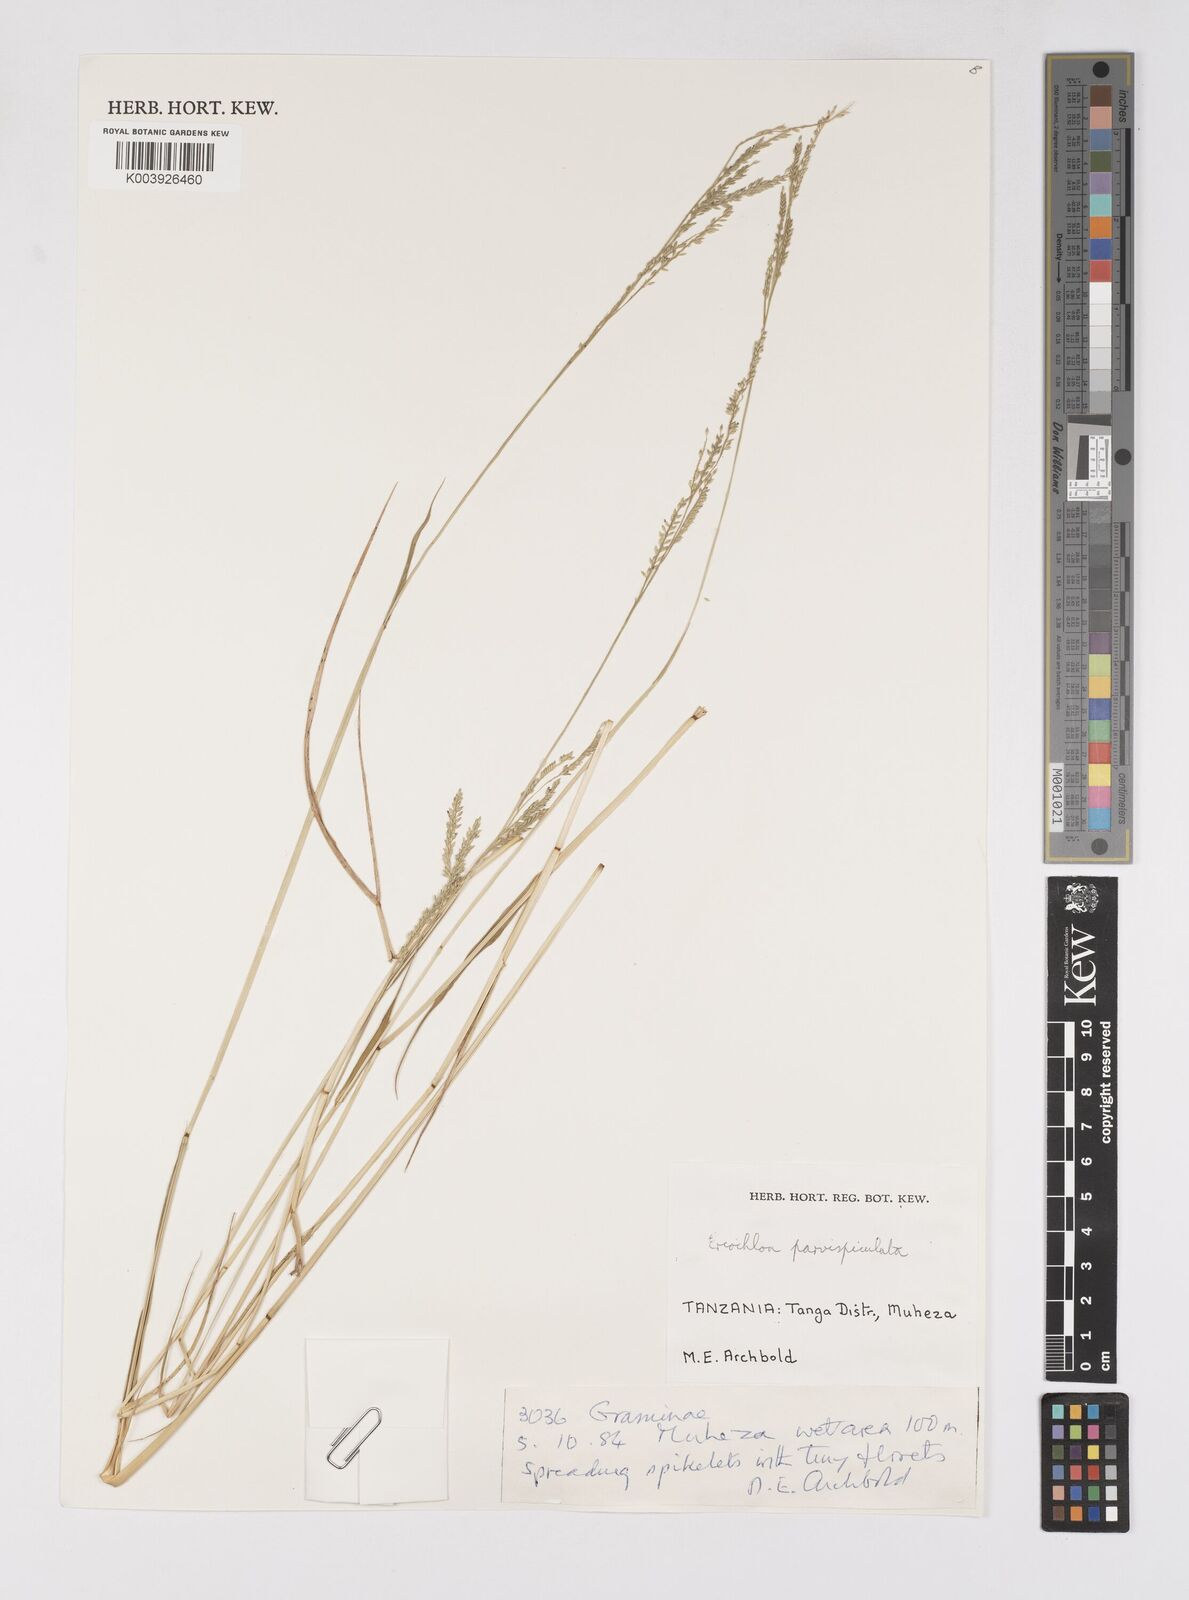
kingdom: Plantae
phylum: Tracheophyta
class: Liliopsida
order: Poales
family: Poaceae
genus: Eriochloa
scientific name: Eriochloa parvispiculata
